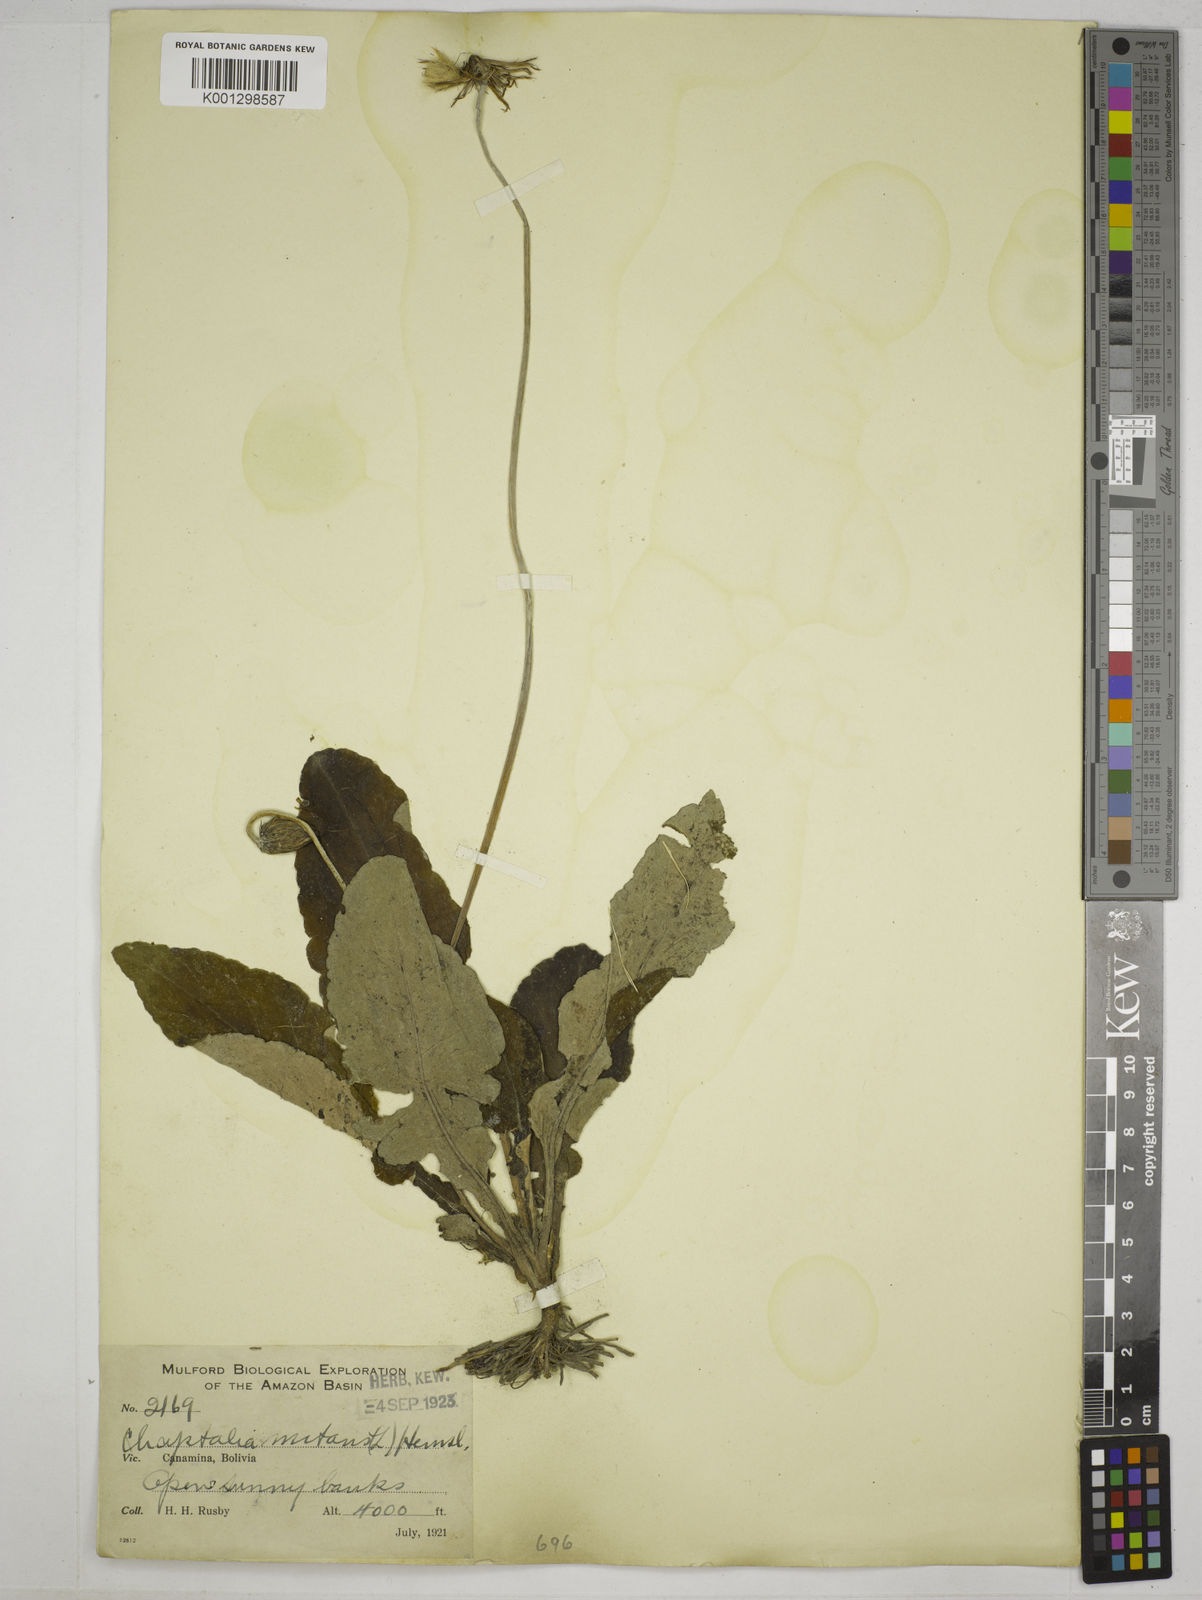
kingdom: Plantae
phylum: Tracheophyta
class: Magnoliopsida
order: Asterales
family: Asteraceae
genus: Chaptalia
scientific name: Chaptalia nutans
